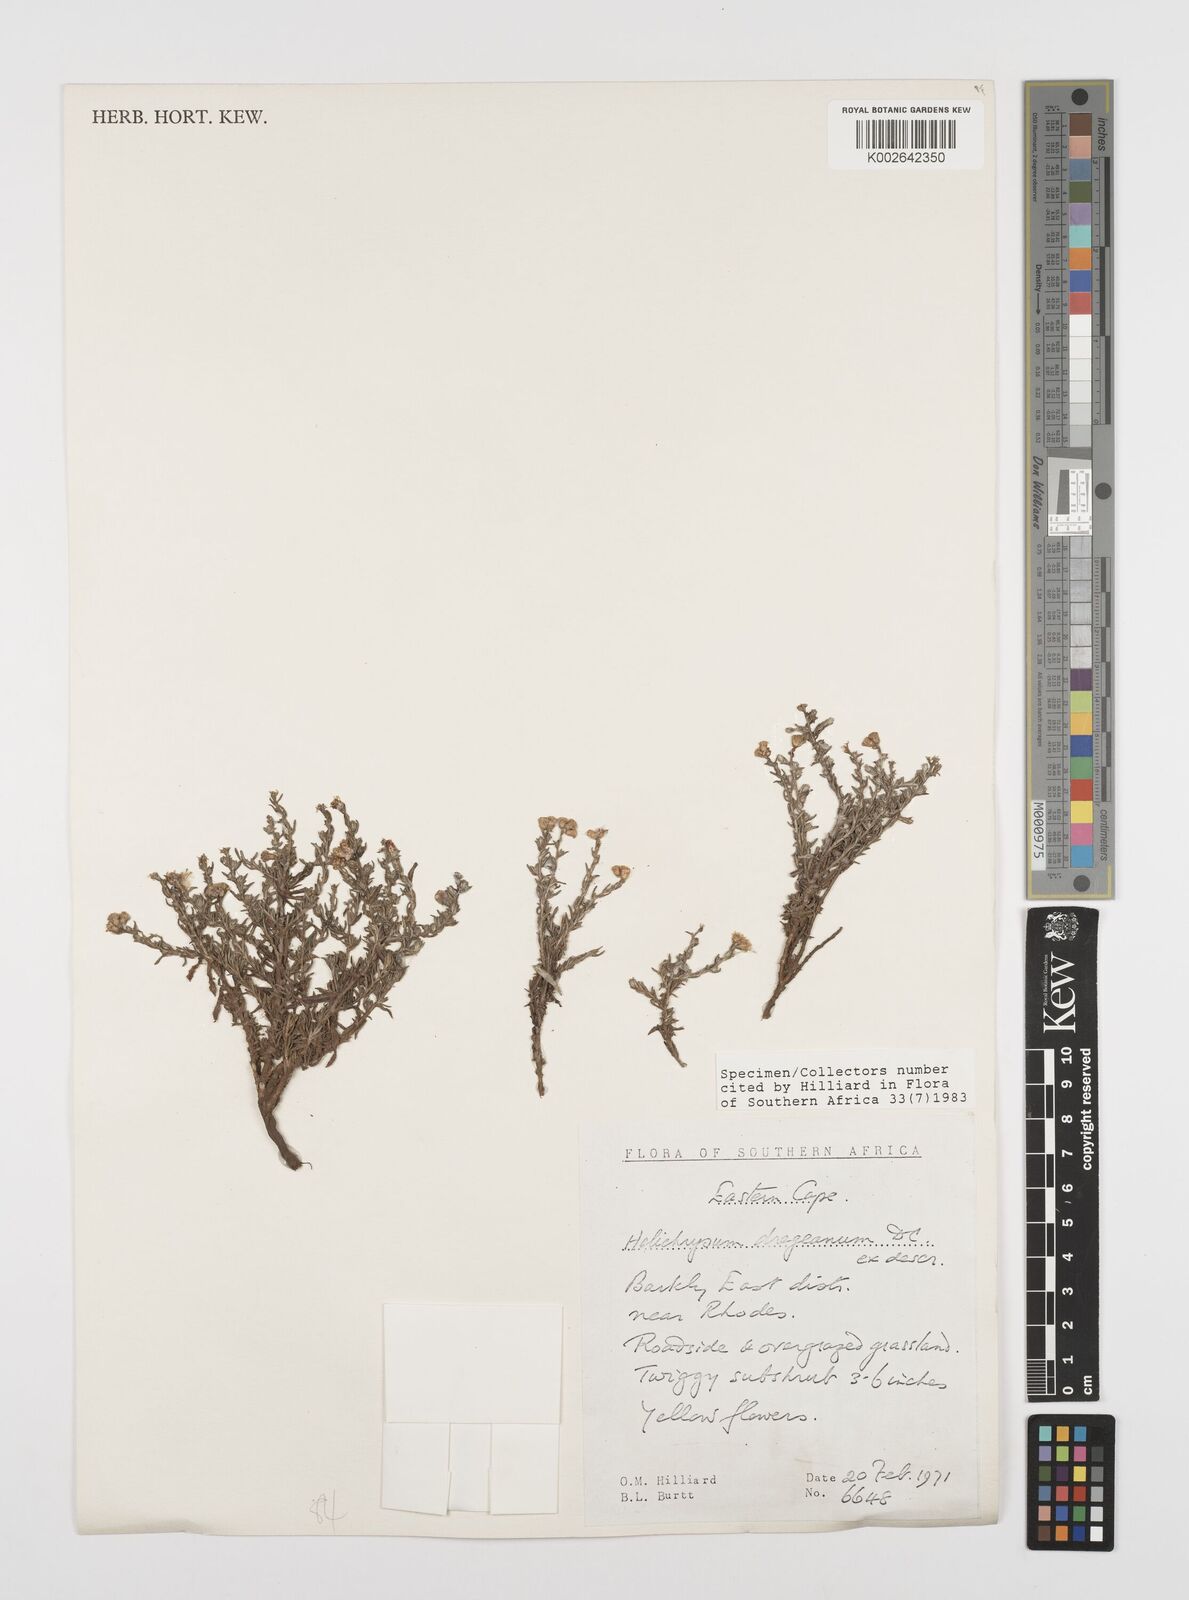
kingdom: Plantae
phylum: Tracheophyta
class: Magnoliopsida
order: Asterales
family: Asteraceae
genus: Helichrysum
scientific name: Helichrysum dregeanum
